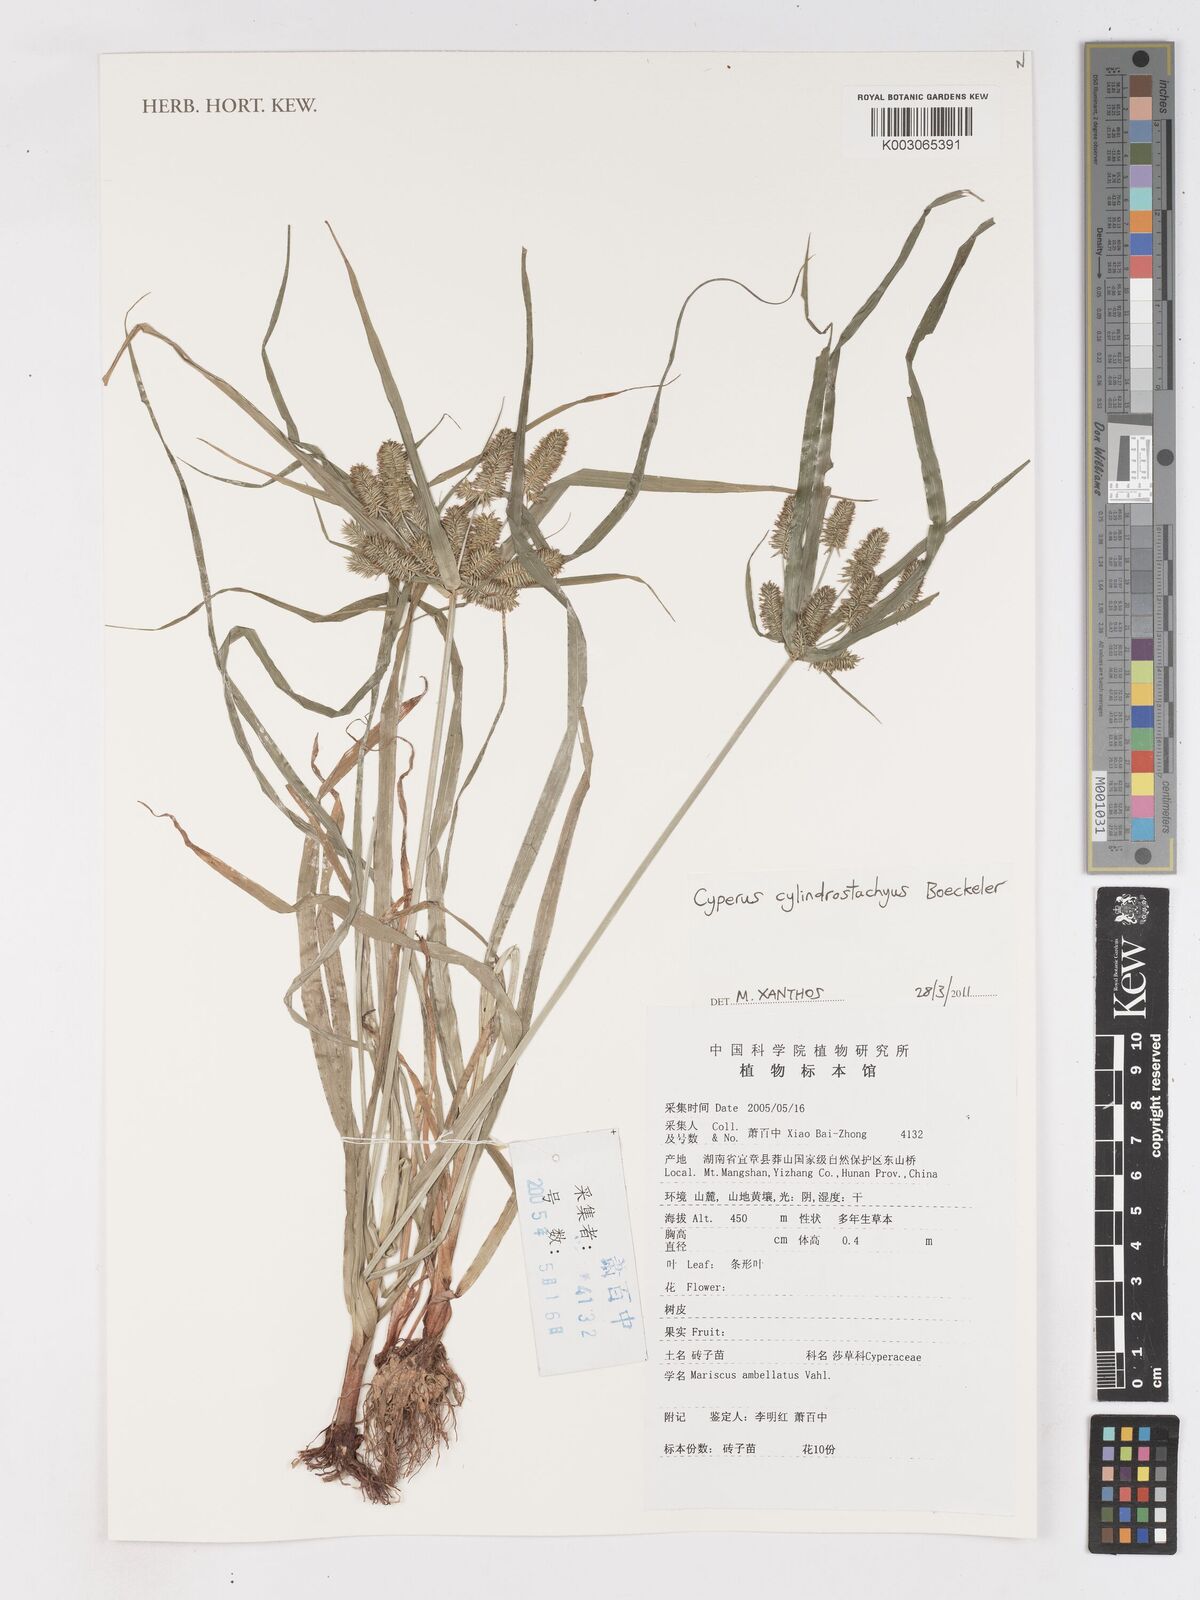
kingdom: Plantae
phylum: Tracheophyta
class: Liliopsida
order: Poales
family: Cyperaceae
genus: Cyperus
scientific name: Cyperus cyperoides
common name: Pacific island flat sedge
